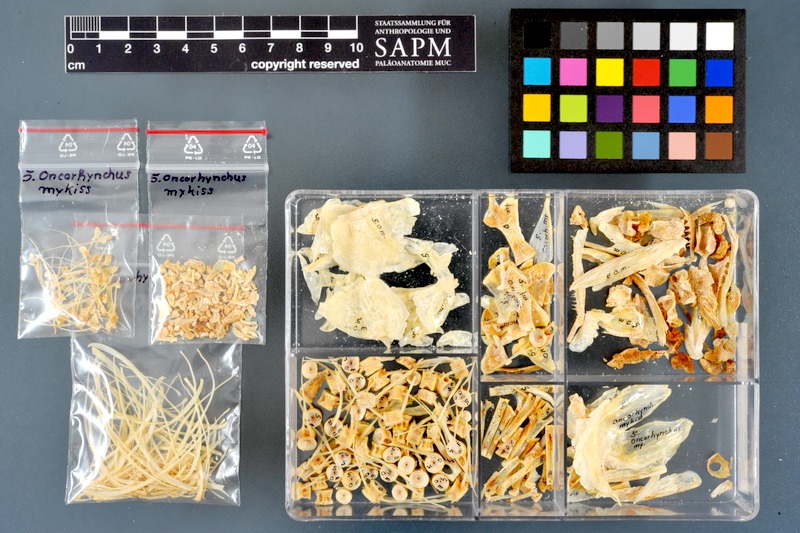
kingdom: Animalia
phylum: Chordata
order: Salmoniformes
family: Salmonidae
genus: Oncorhynchus
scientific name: Oncorhynchus mykiss
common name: Rainbow trout
